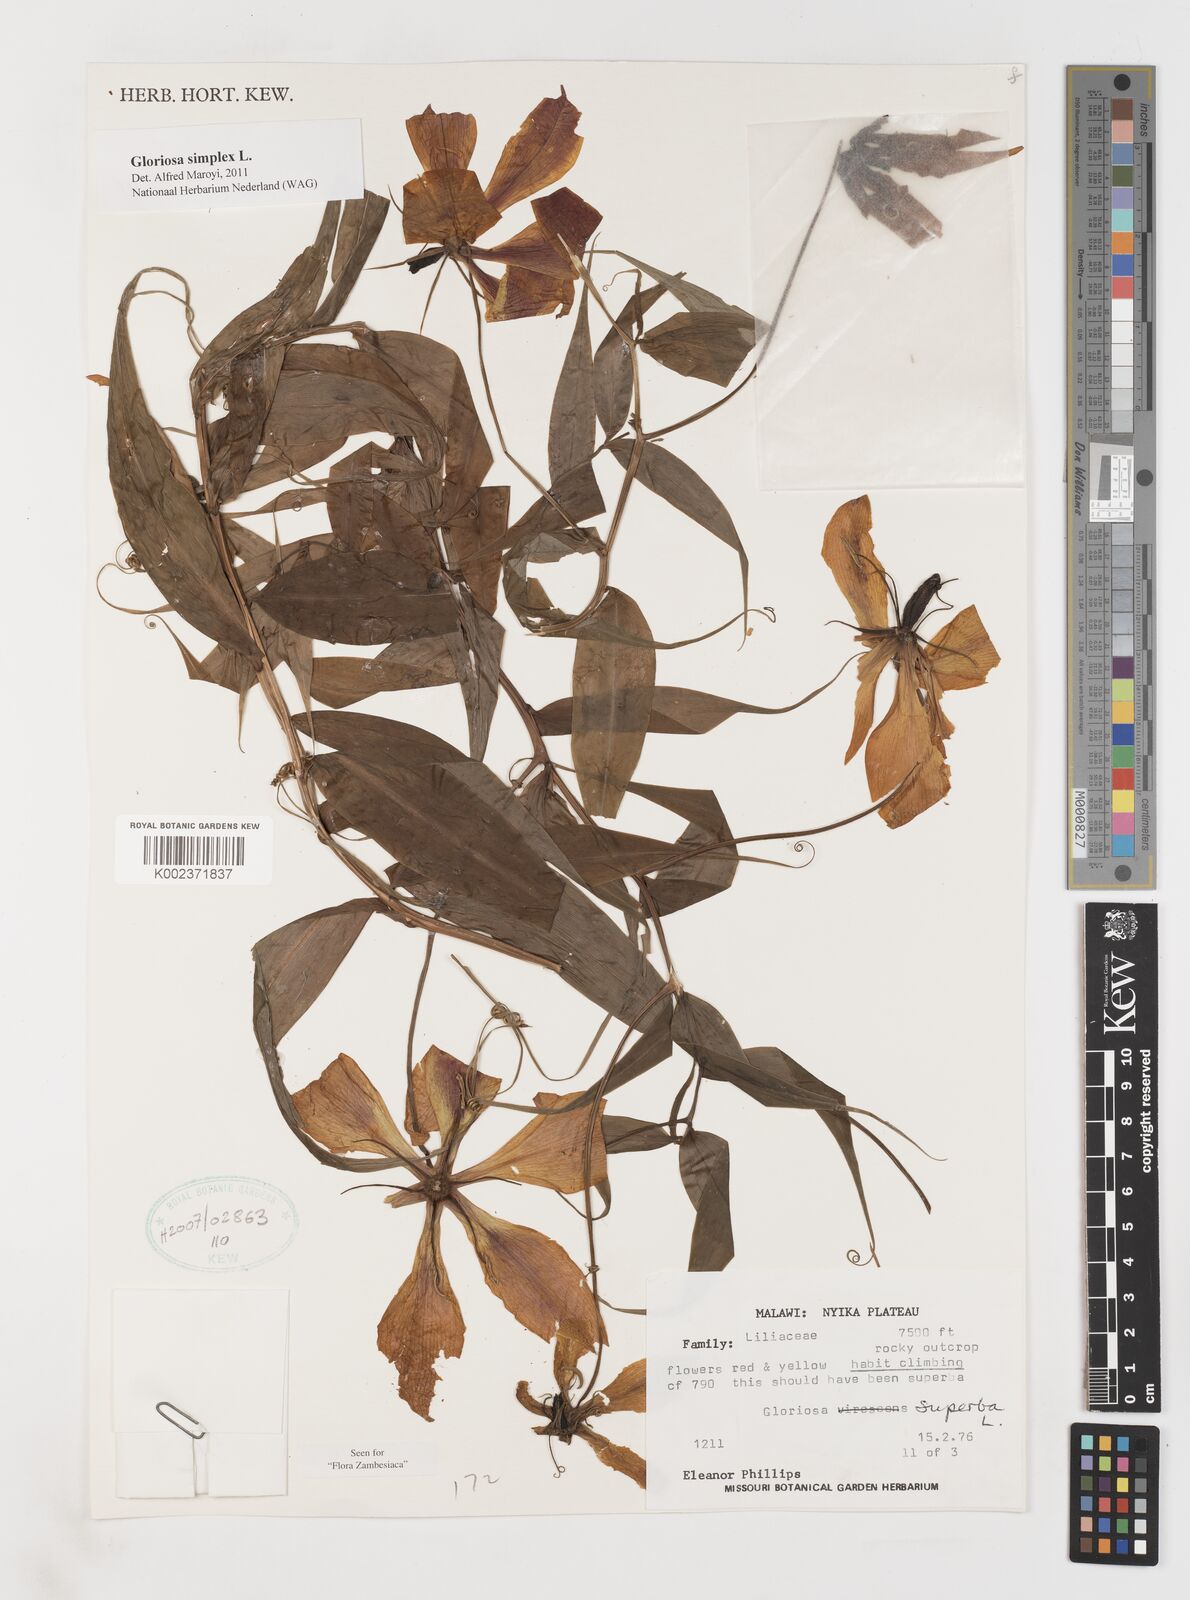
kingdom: Plantae
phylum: Tracheophyta
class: Liliopsida
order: Liliales
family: Colchicaceae
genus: Gloriosa
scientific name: Gloriosa simplex
